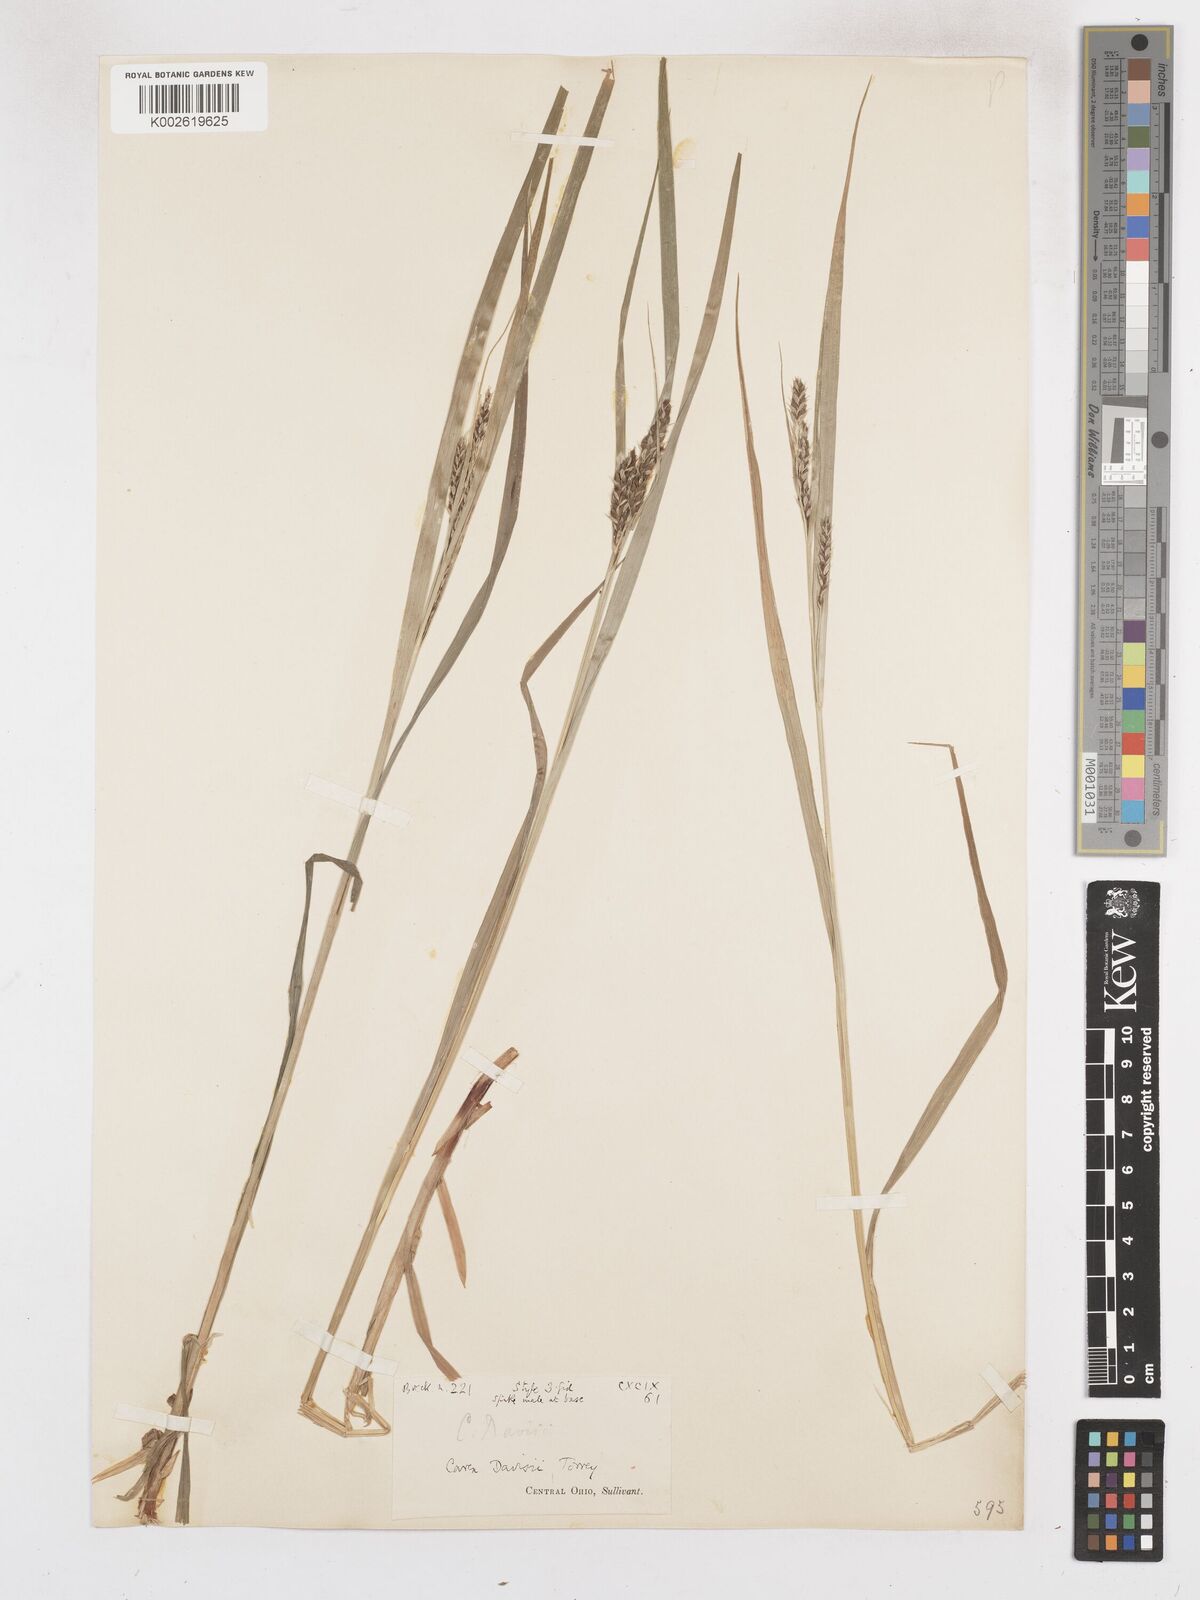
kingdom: Plantae
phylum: Tracheophyta
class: Liliopsida
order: Poales
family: Cyperaceae
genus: Carex
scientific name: Carex davisii
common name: Davis' sedge
